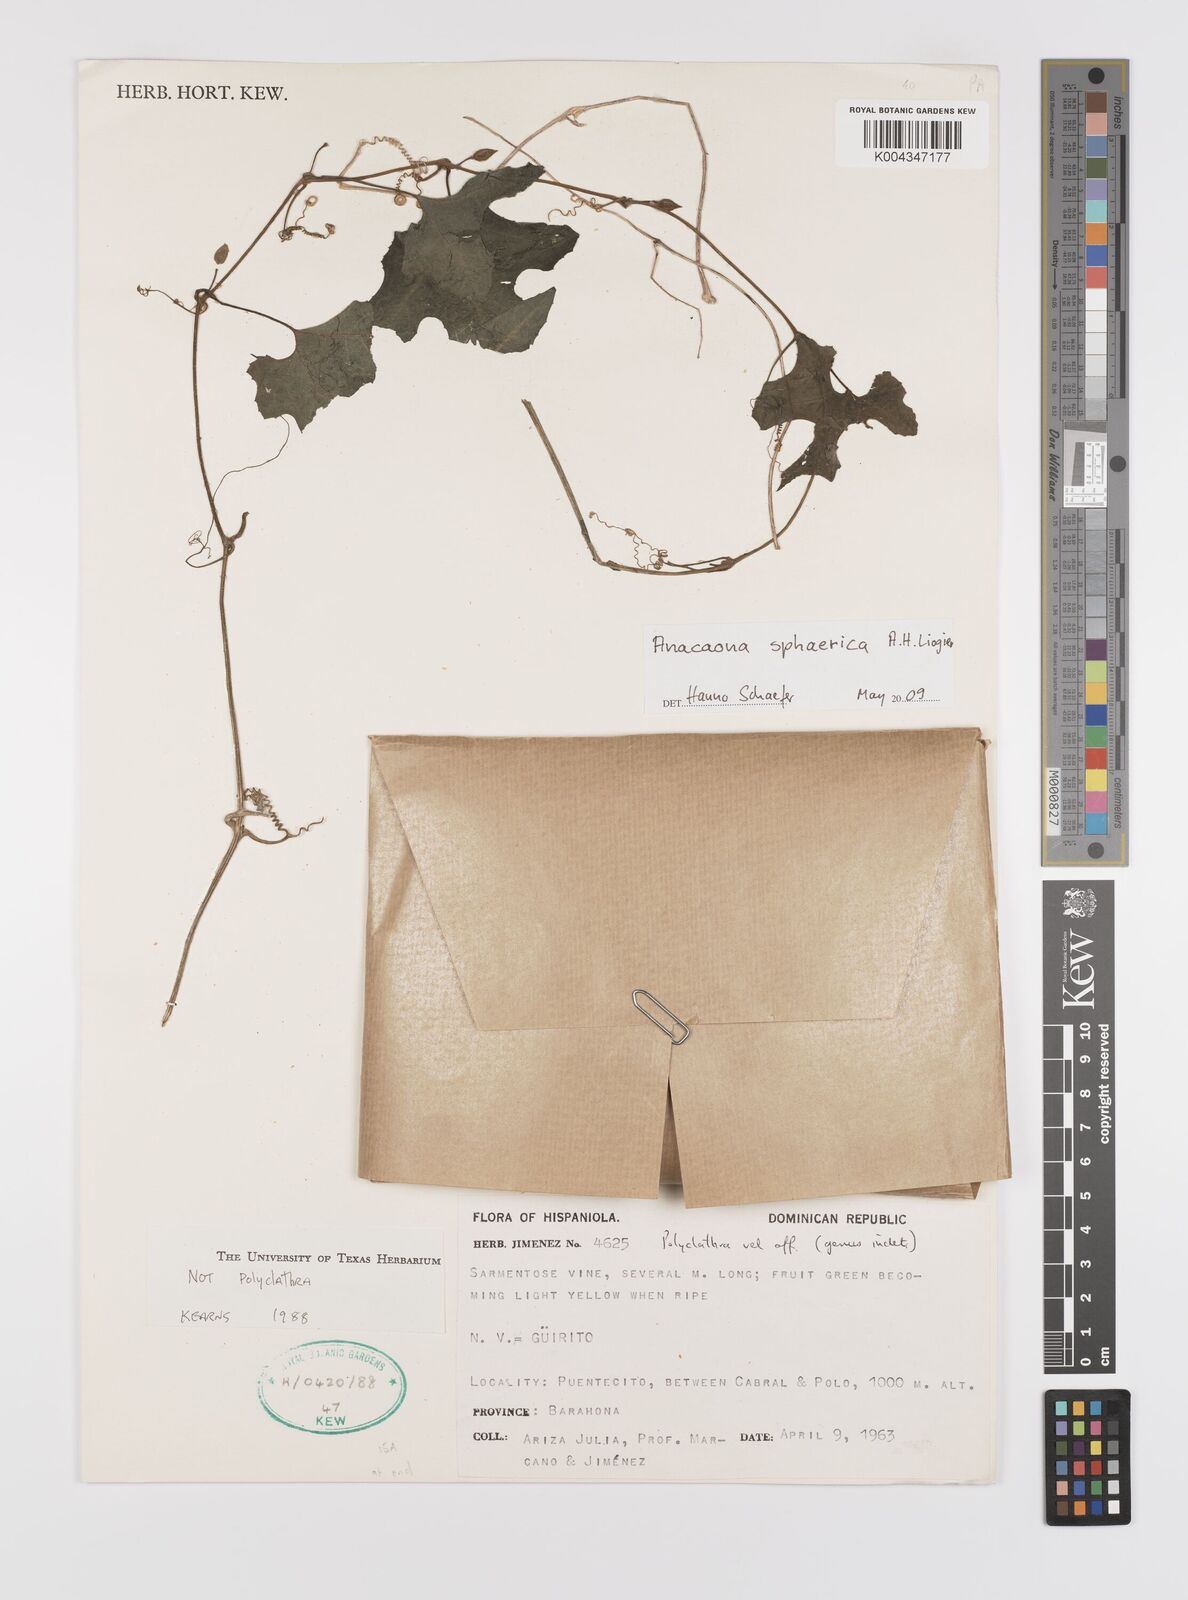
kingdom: Plantae
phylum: Tracheophyta
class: Magnoliopsida
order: Cucurbitales
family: Cucurbitaceae
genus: Penelopeia
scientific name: Penelopeia sphaerica
